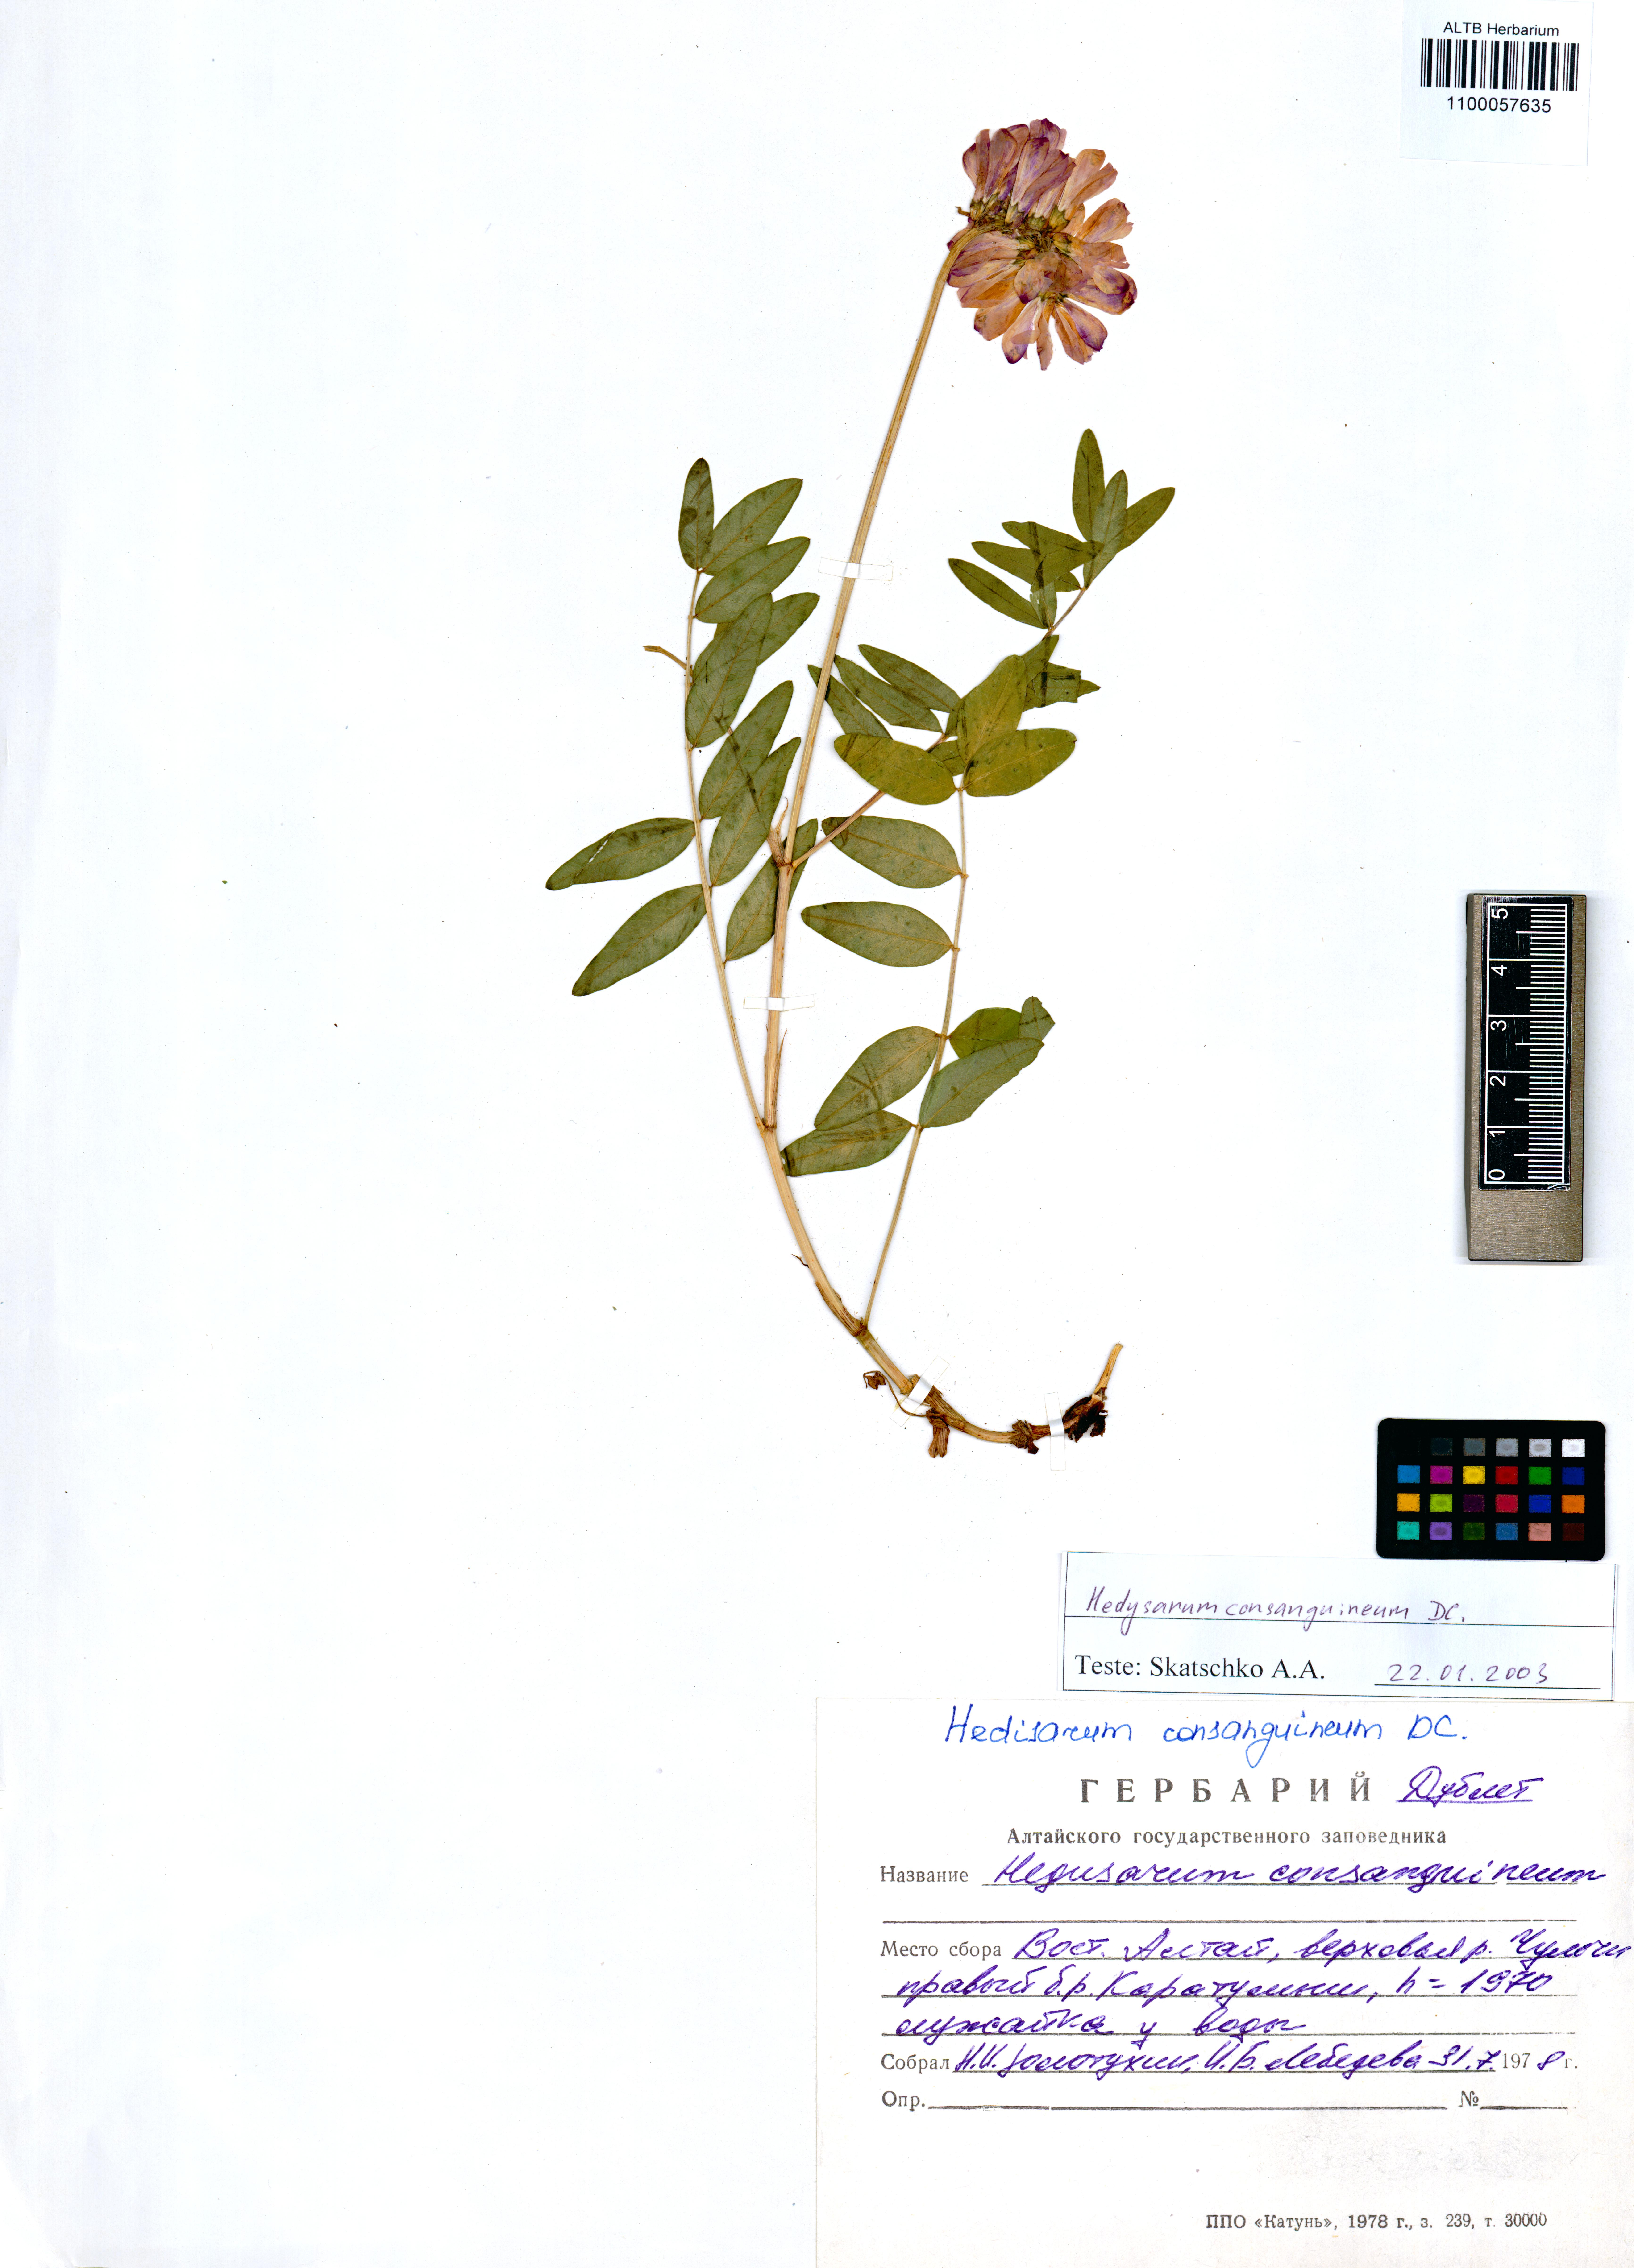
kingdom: Plantae
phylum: Tracheophyta
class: Magnoliopsida
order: Fabales
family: Fabaceae
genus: Hedysarum
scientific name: Hedysarum consanguineum
